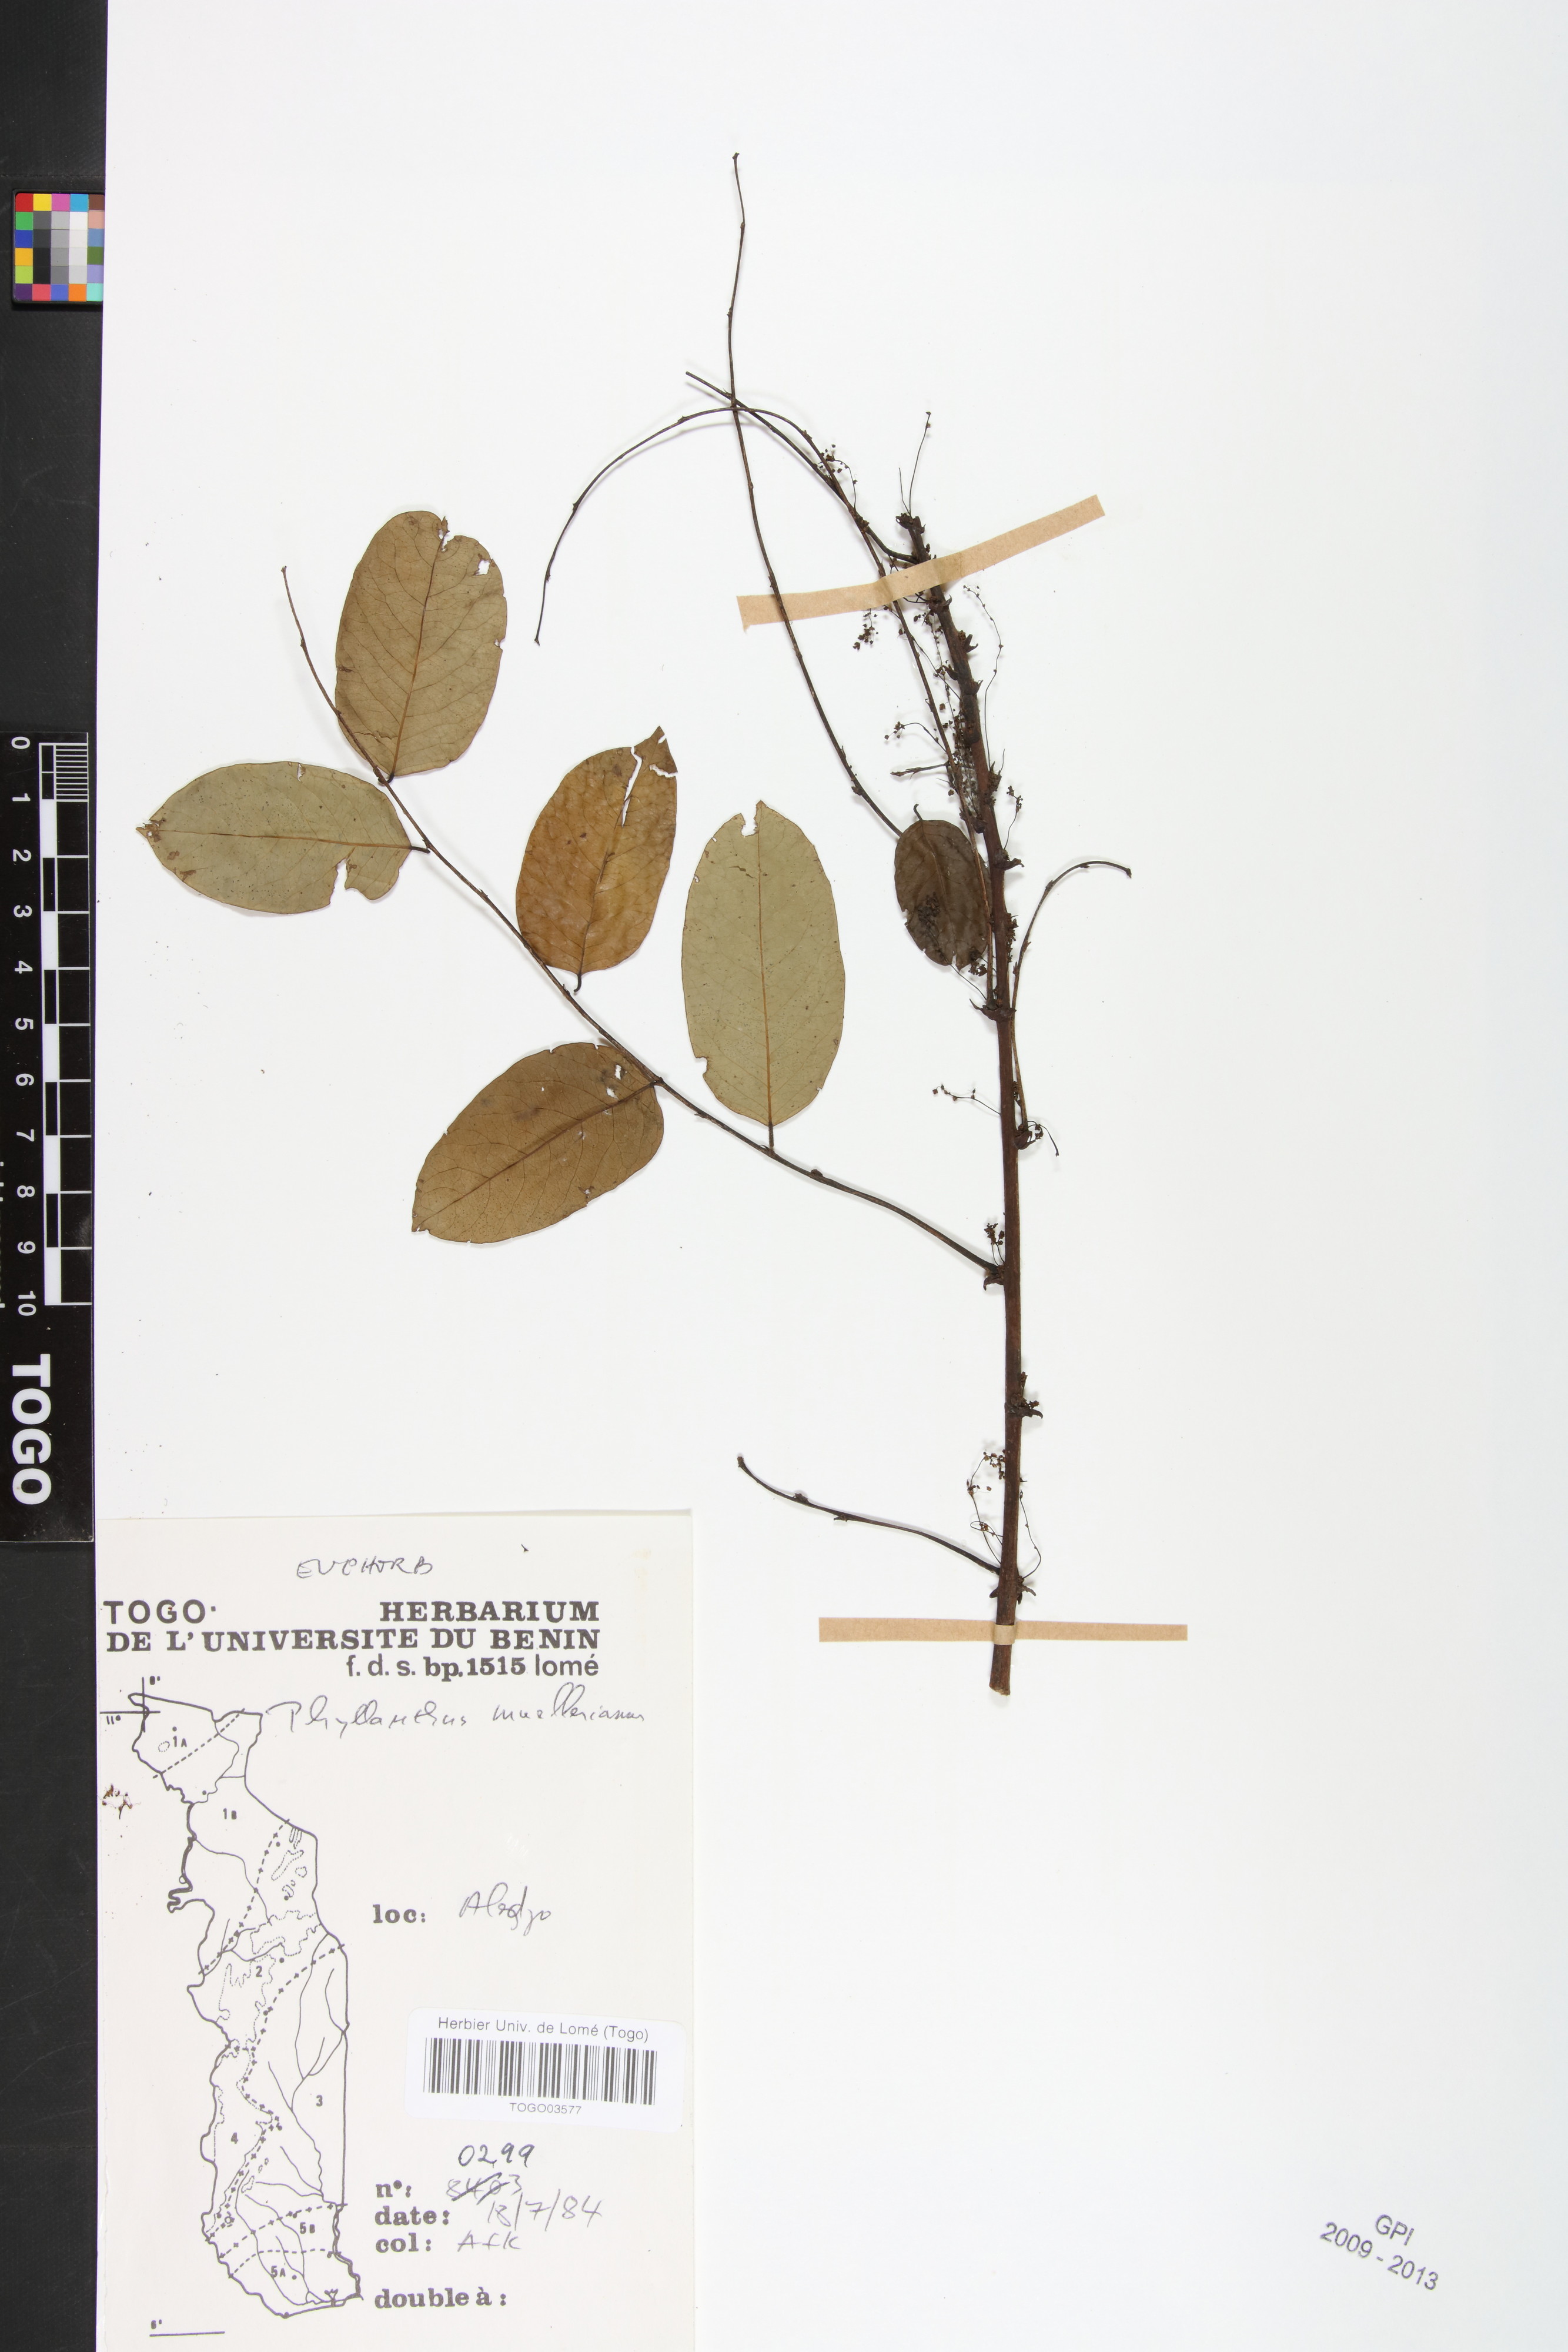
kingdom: Plantae
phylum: Tracheophyta
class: Magnoliopsida
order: Malpighiales
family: Phyllanthaceae
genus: Phyllanthus
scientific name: Phyllanthus muellerianus
